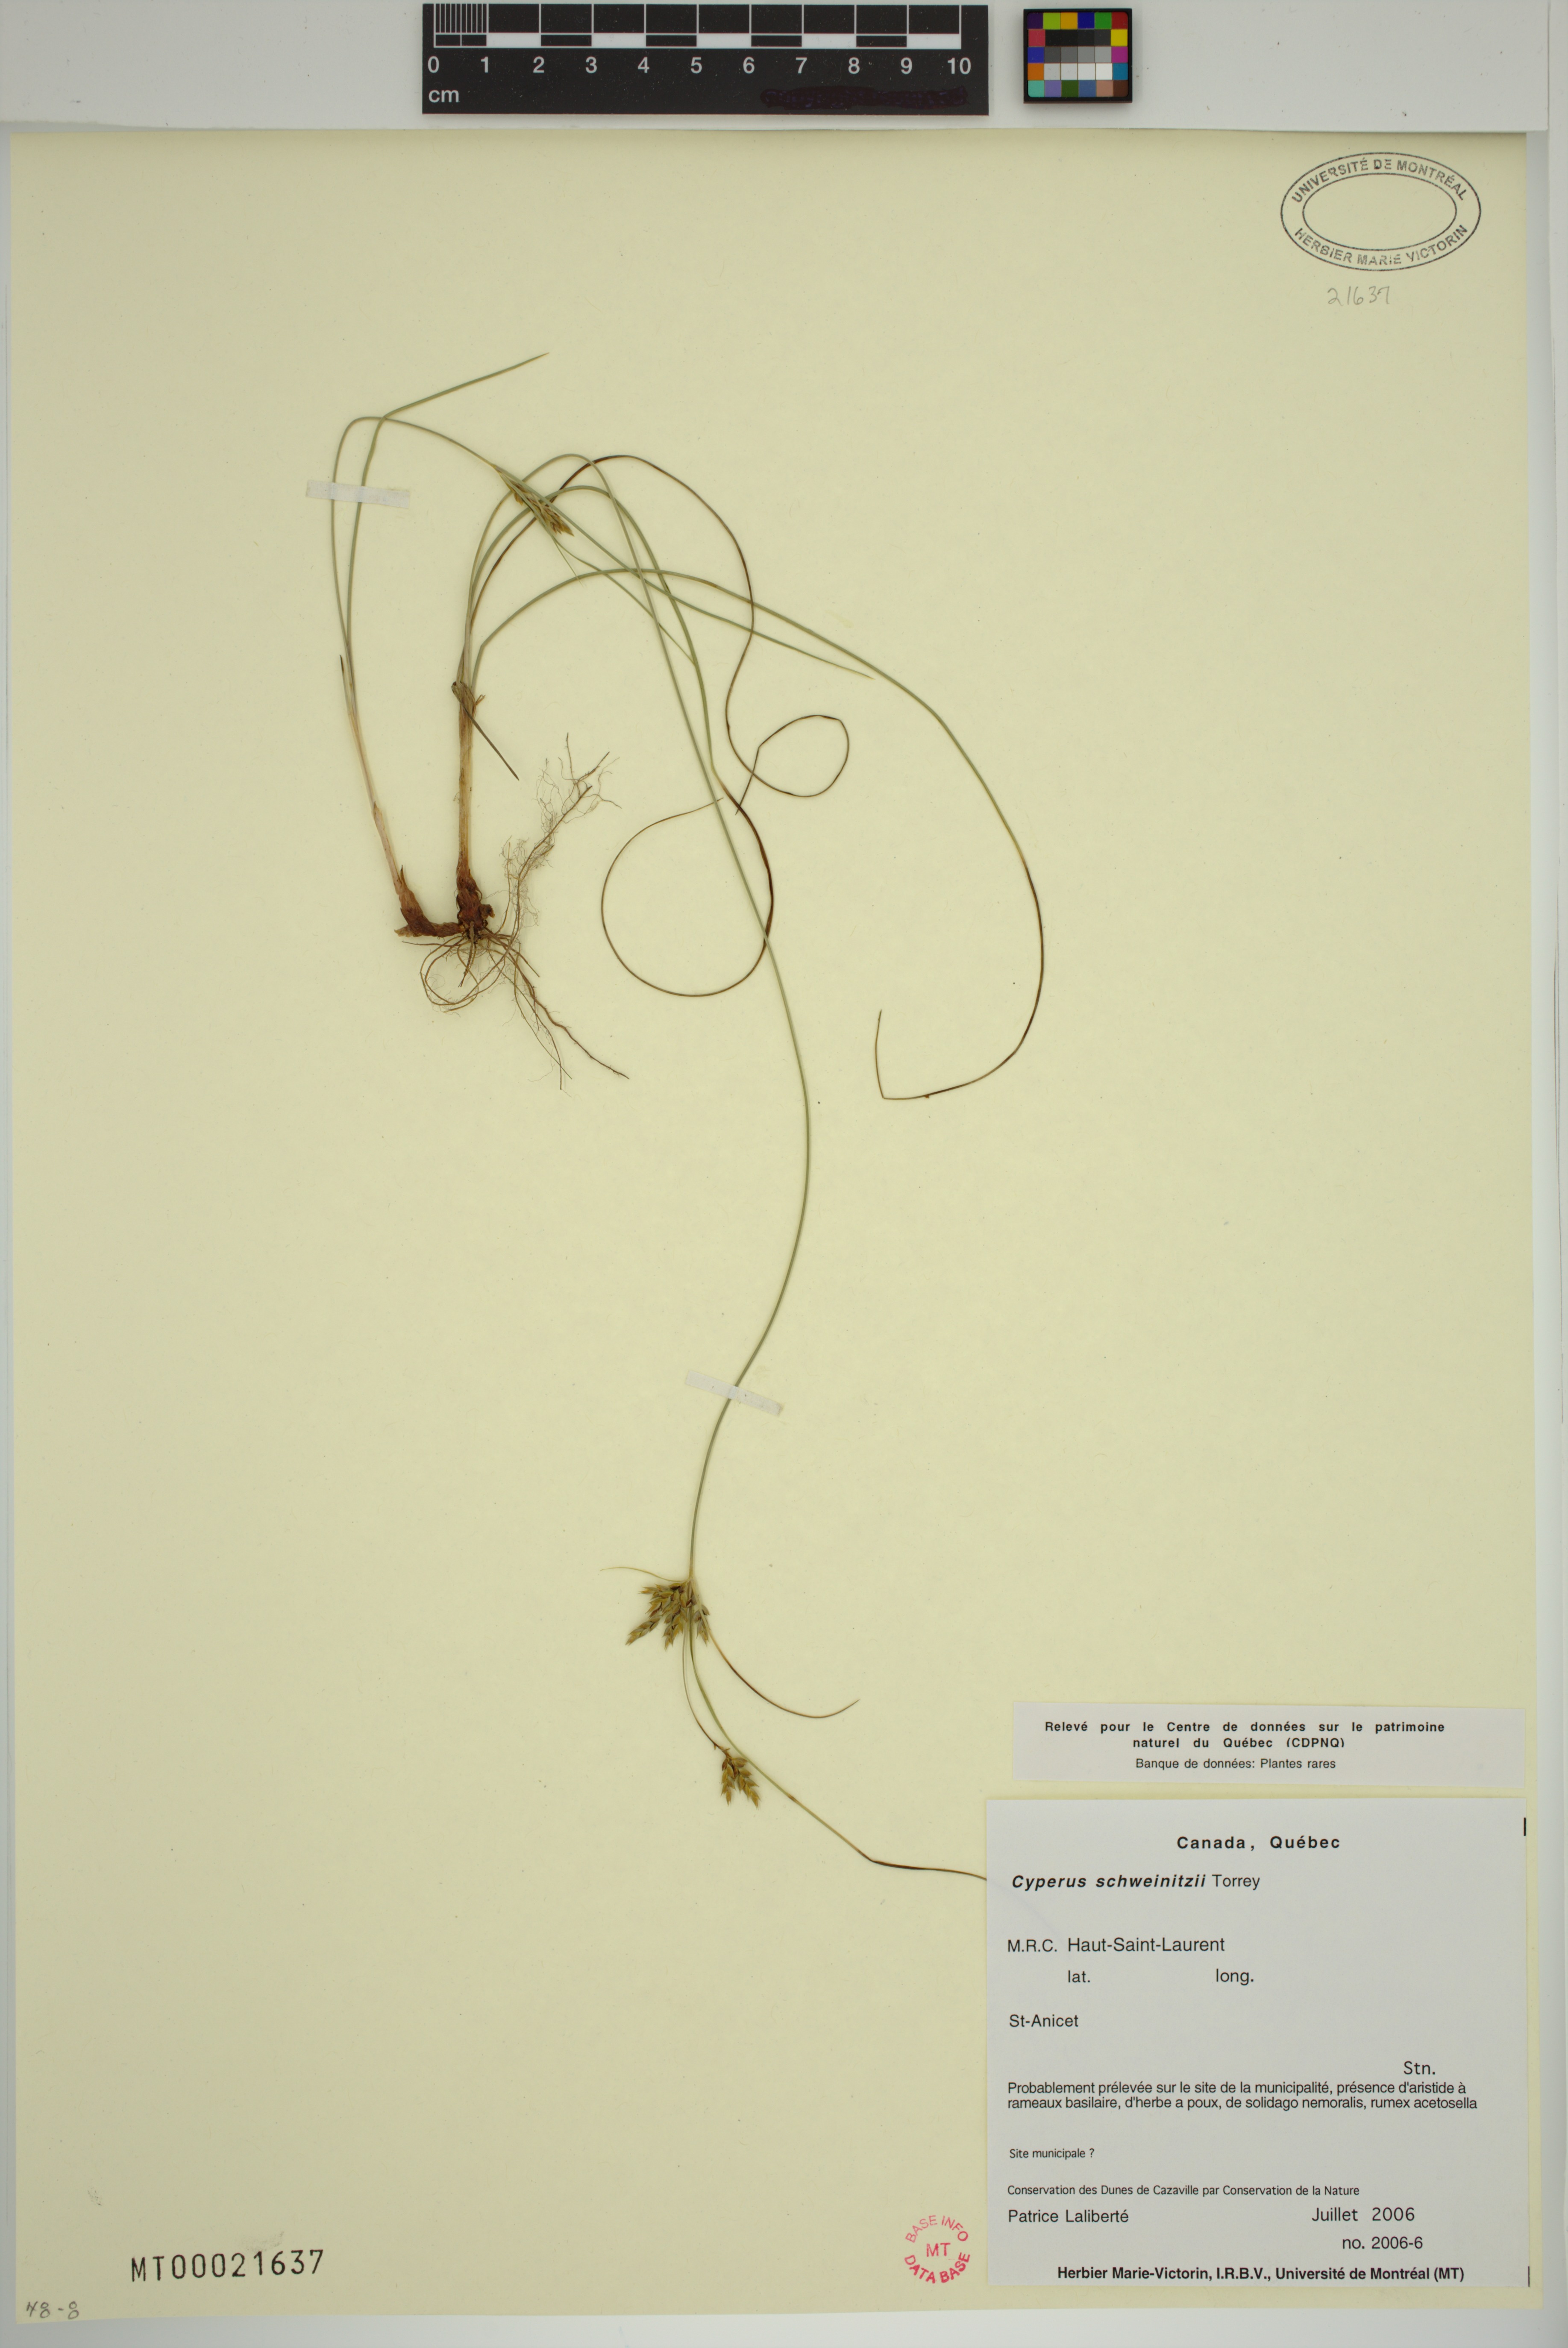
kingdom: Plantae
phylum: Tracheophyta
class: Liliopsida
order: Poales
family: Cyperaceae
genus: Cyperus
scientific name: Cyperus schweinitzii
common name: Schweinitz's cyperus
